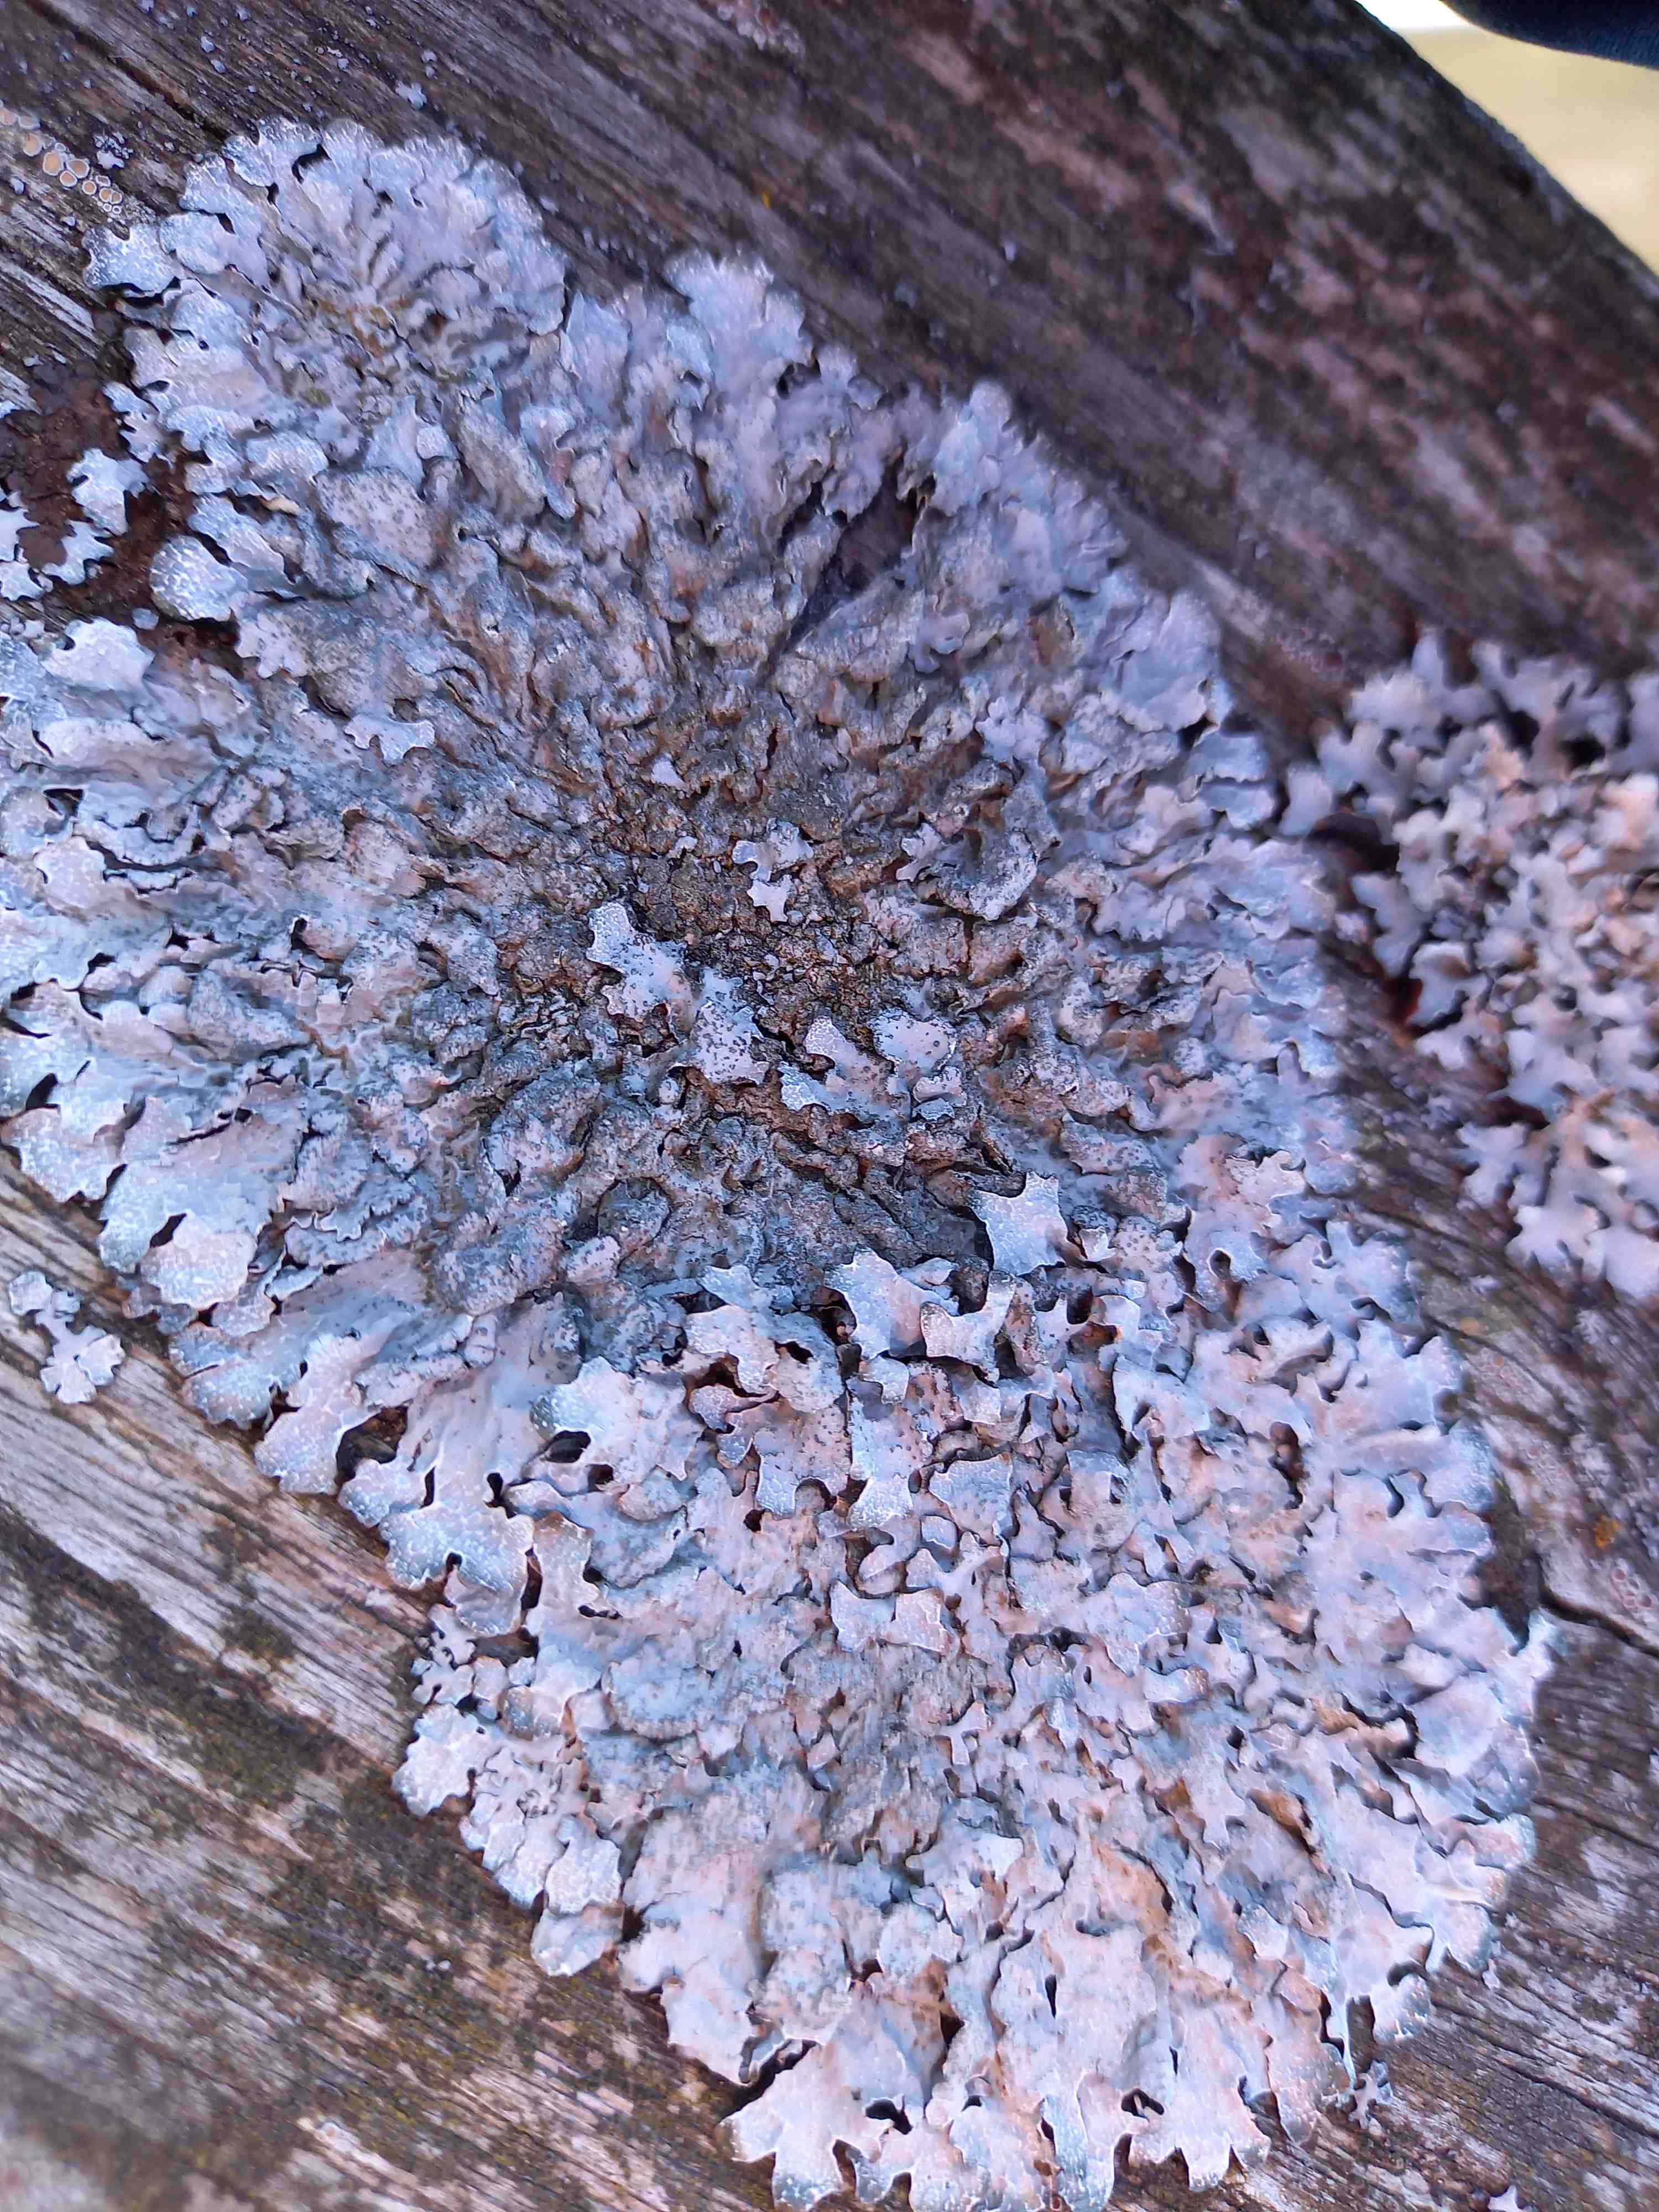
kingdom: Fungi
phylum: Ascomycota
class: Lecanoromycetes
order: Lecanorales
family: Parmeliaceae
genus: Parmelia
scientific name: Parmelia sulcata
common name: rynket skållav
